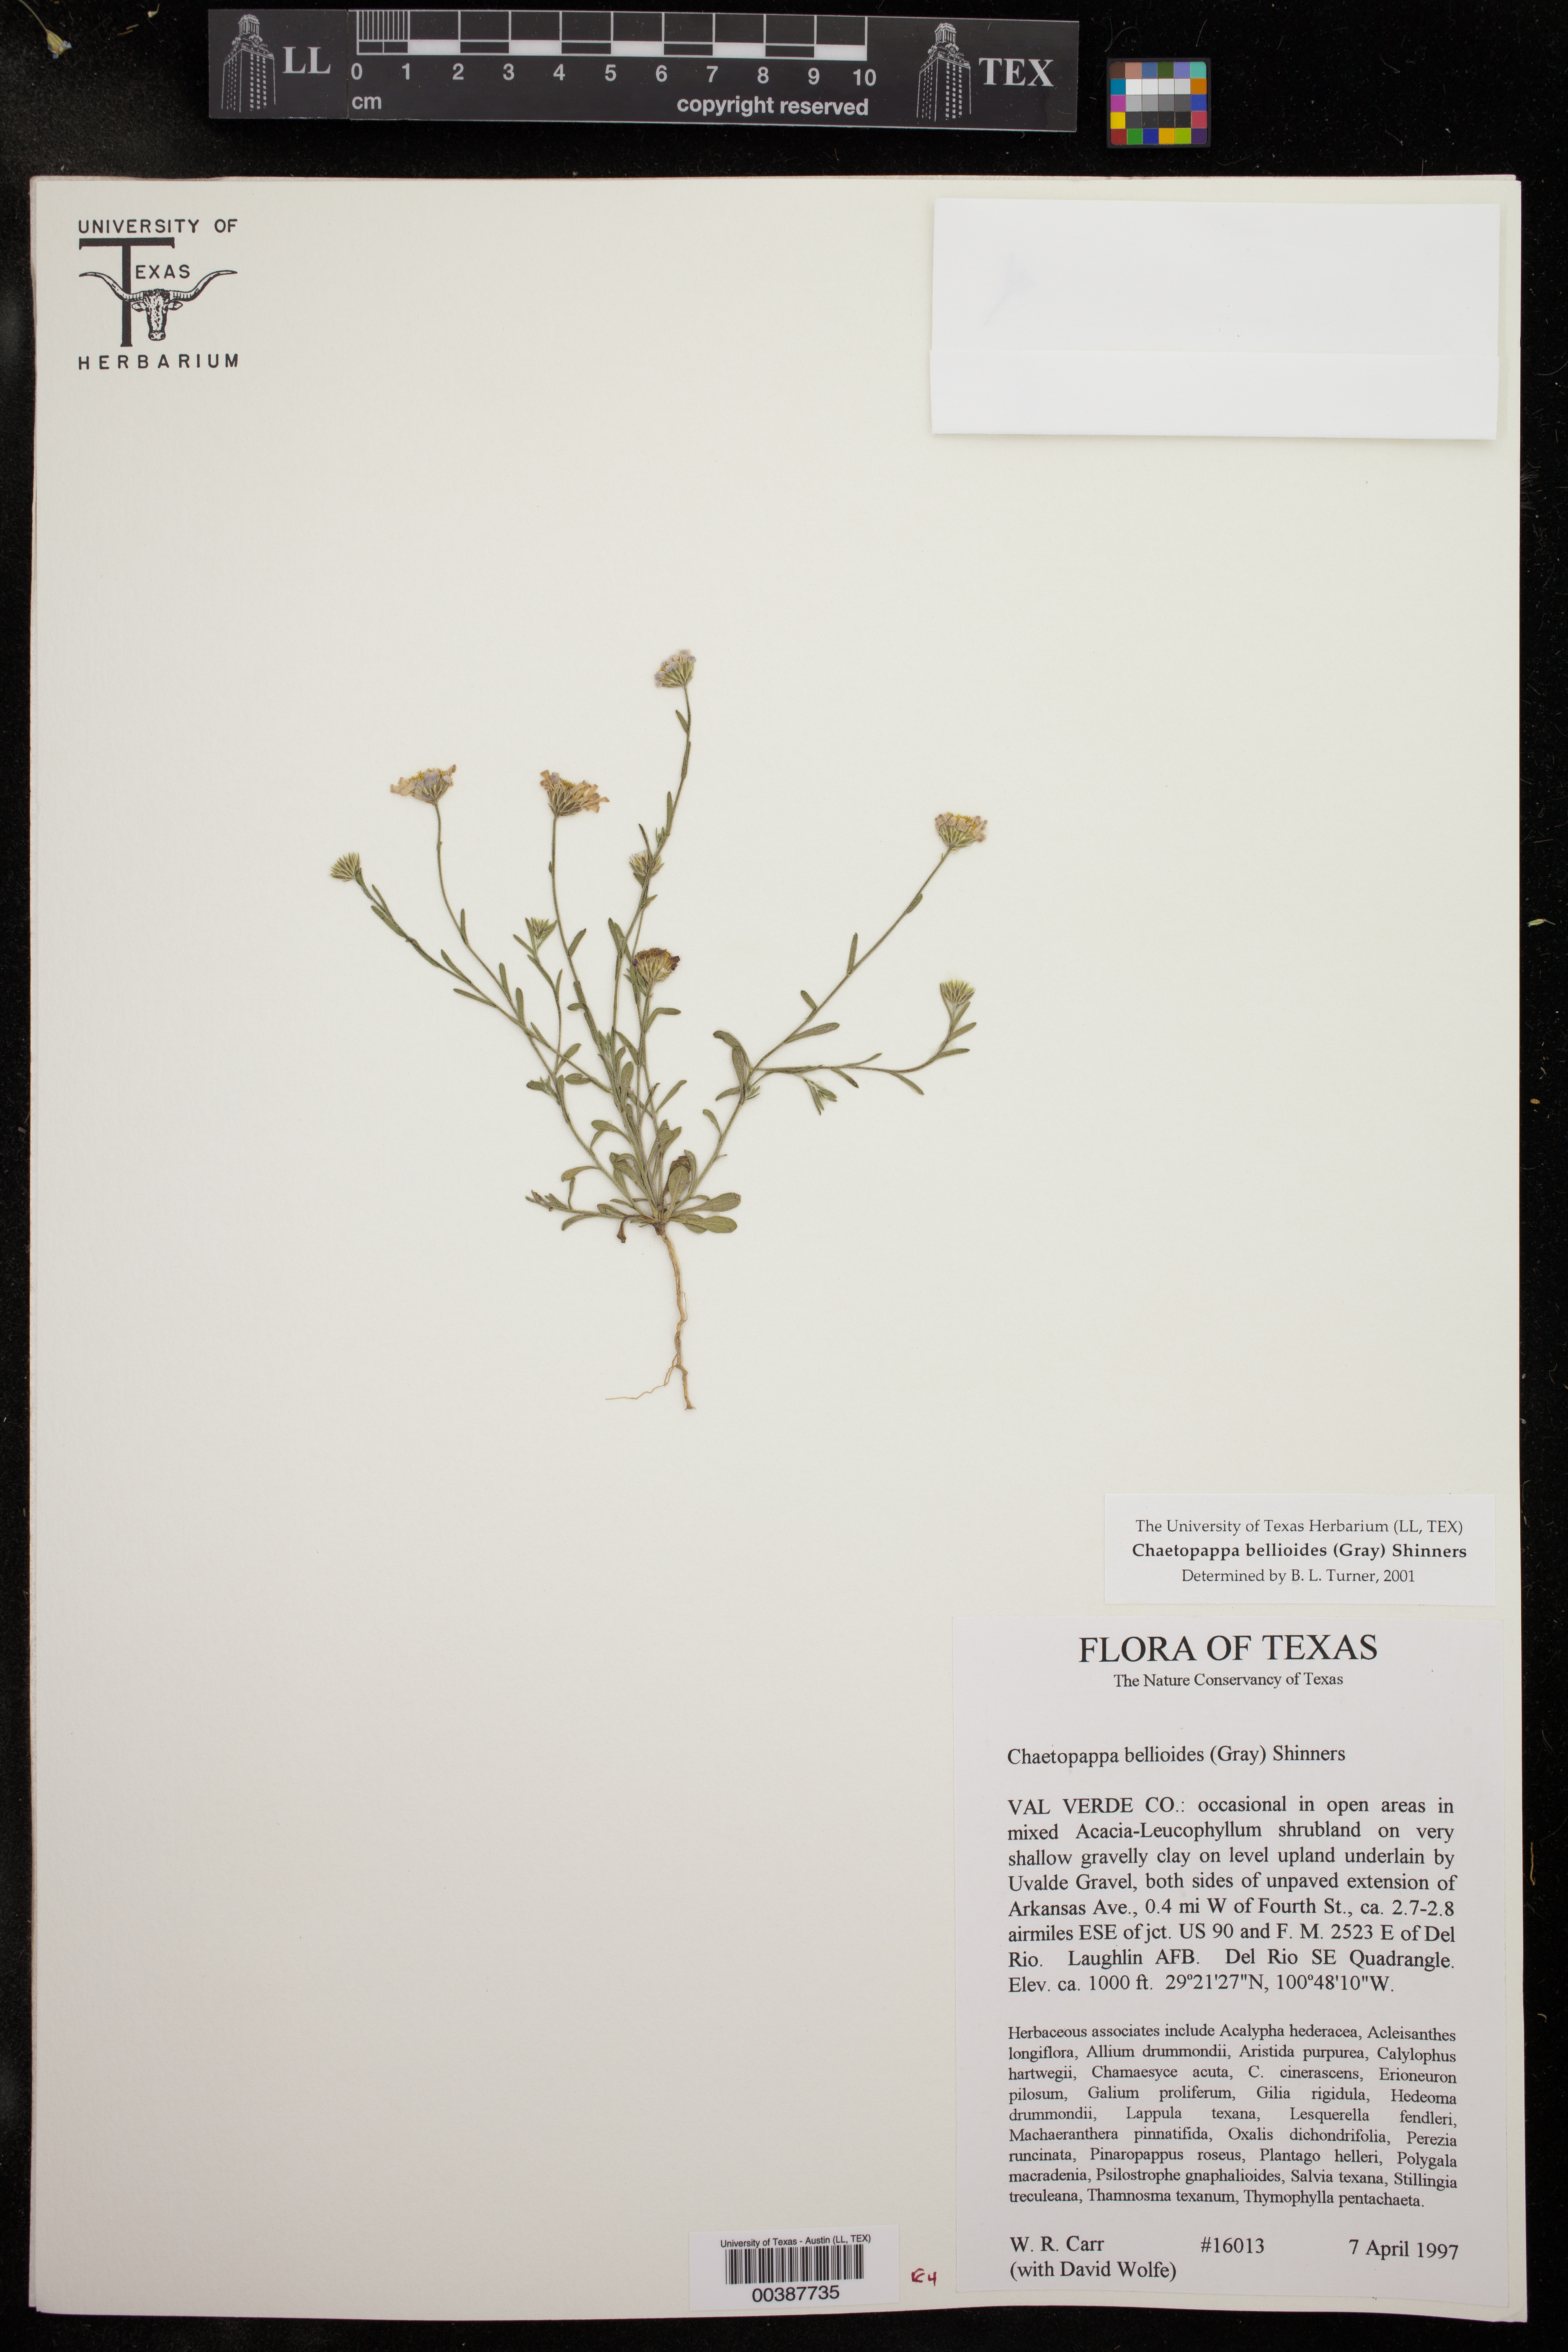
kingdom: Plantae
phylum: Tracheophyta
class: Magnoliopsida
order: Asterales
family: Asteraceae
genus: Chaetopappa
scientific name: Chaetopappa bellioides
